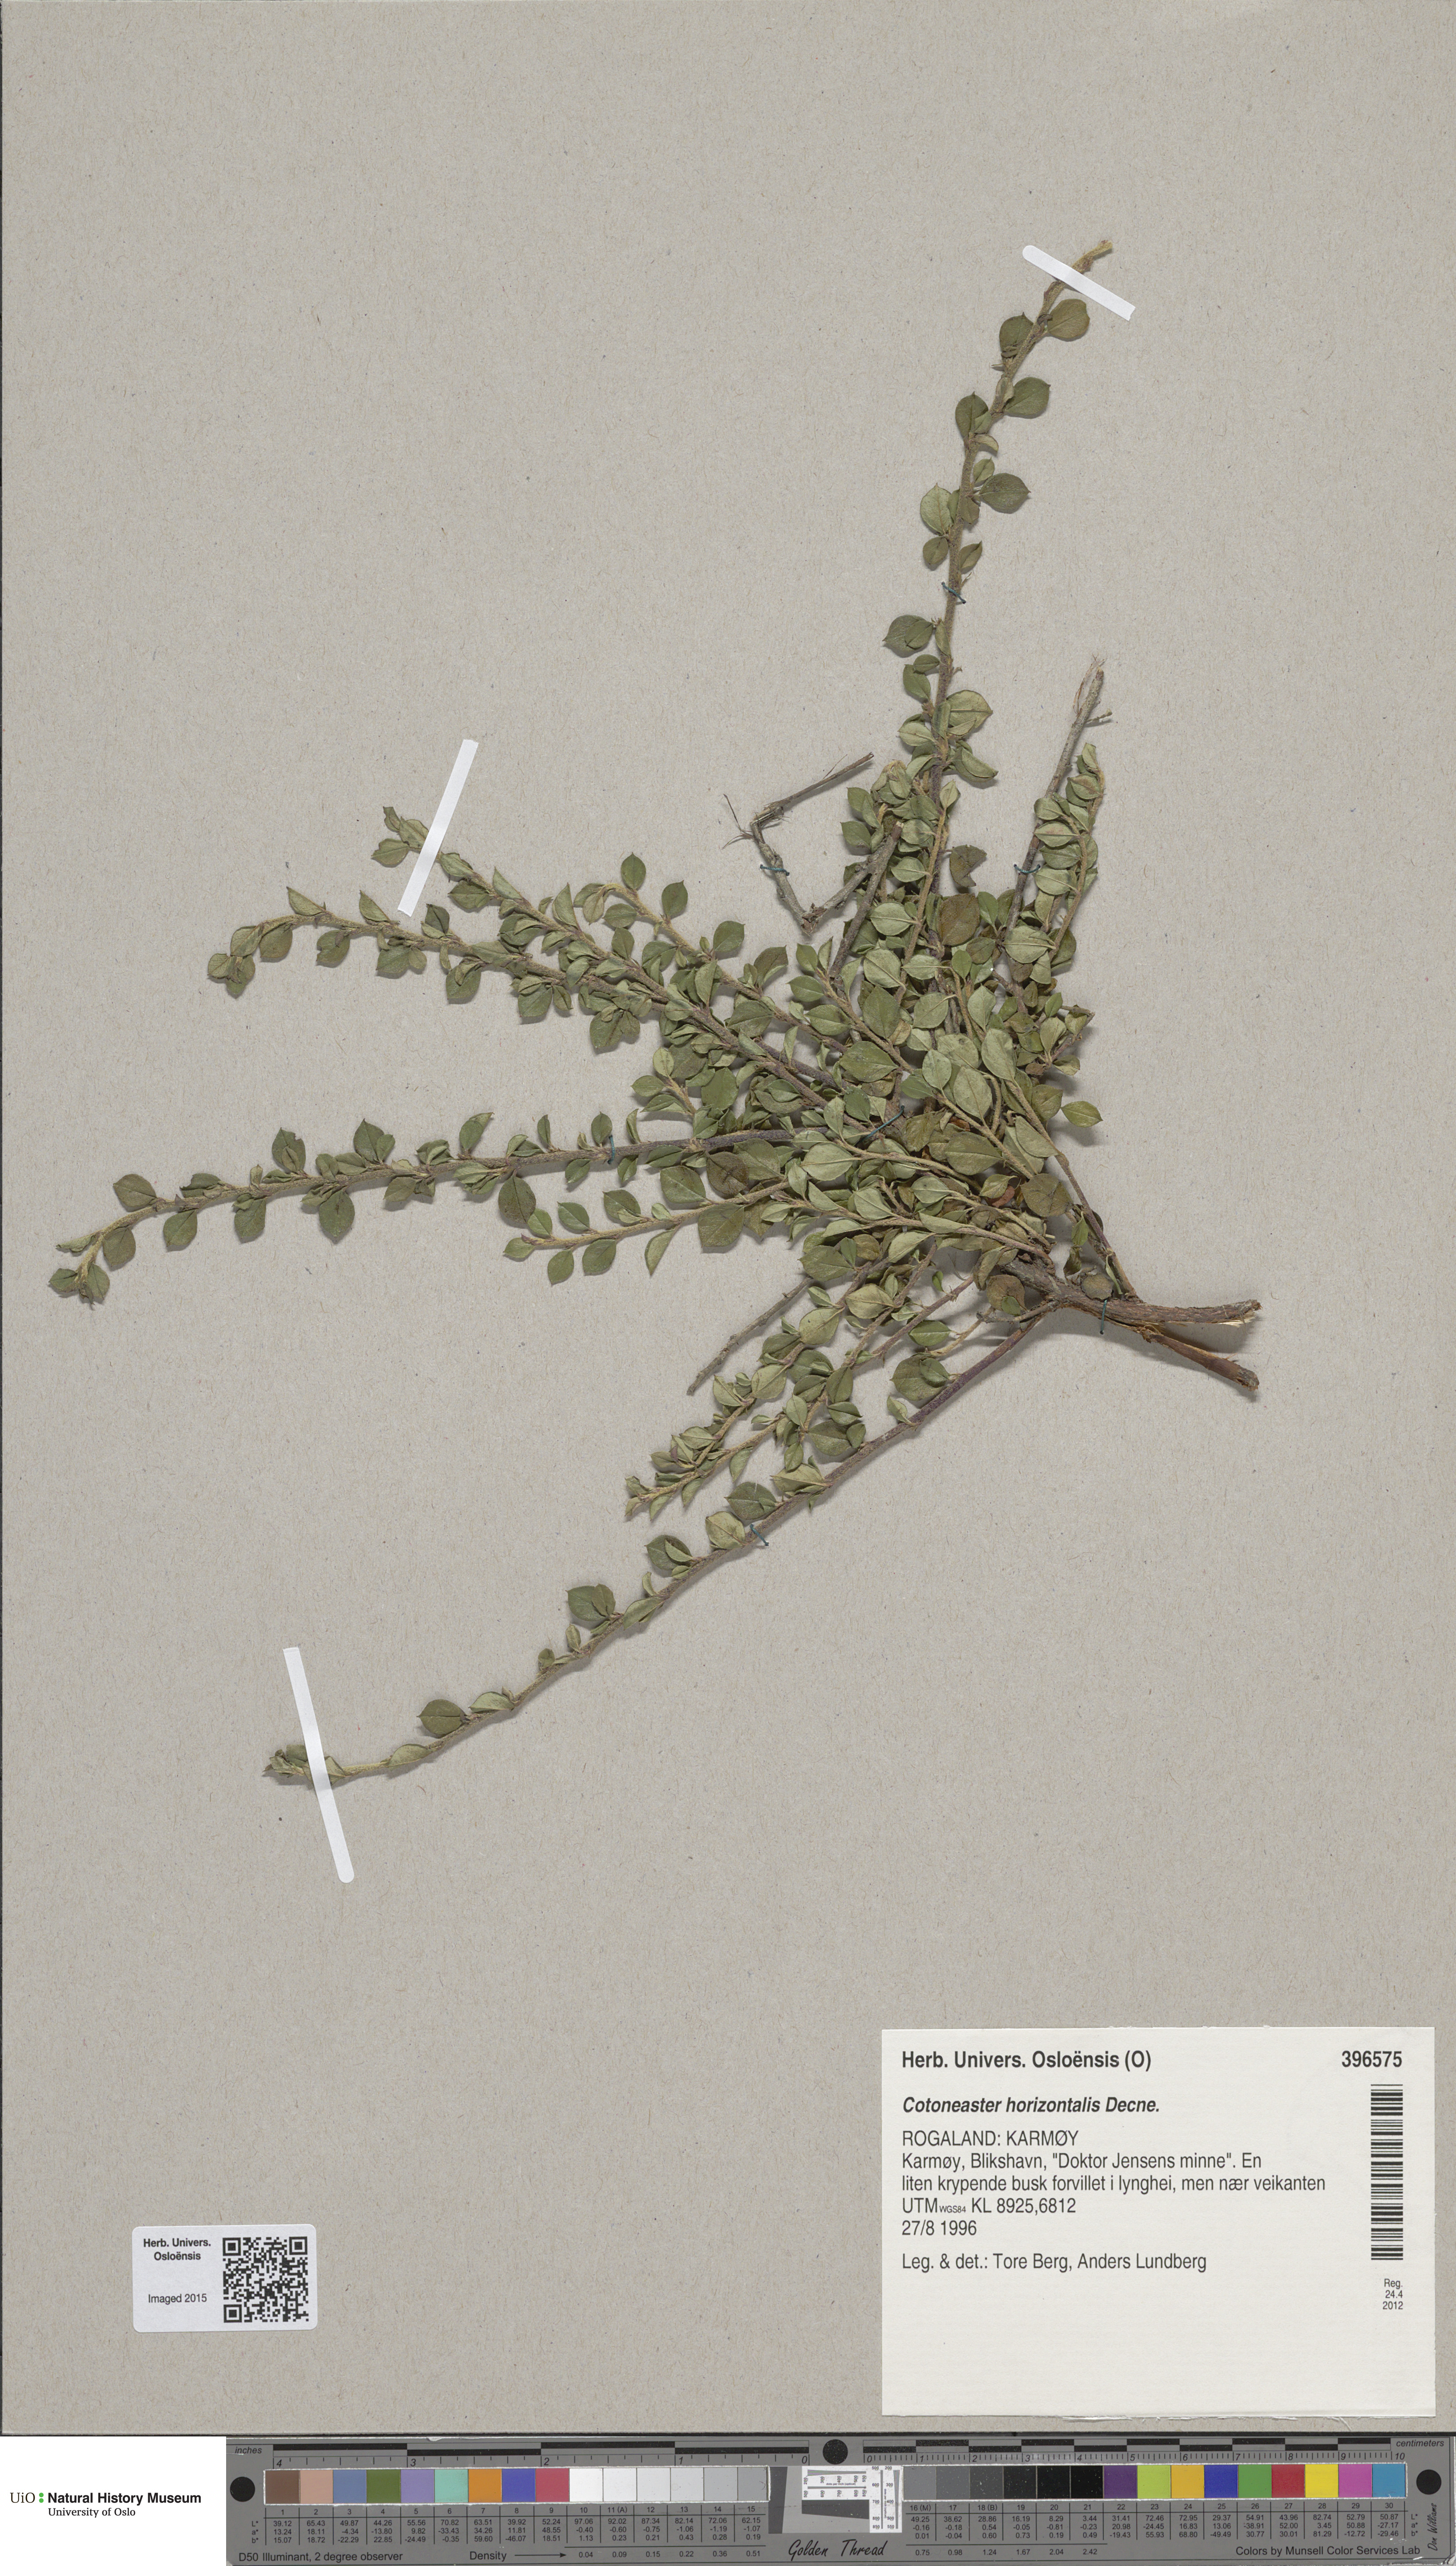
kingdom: Plantae
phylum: Tracheophyta
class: Magnoliopsida
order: Rosales
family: Rosaceae
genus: Cotoneaster
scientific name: Cotoneaster horizontalis
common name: Wall cotoneaster
